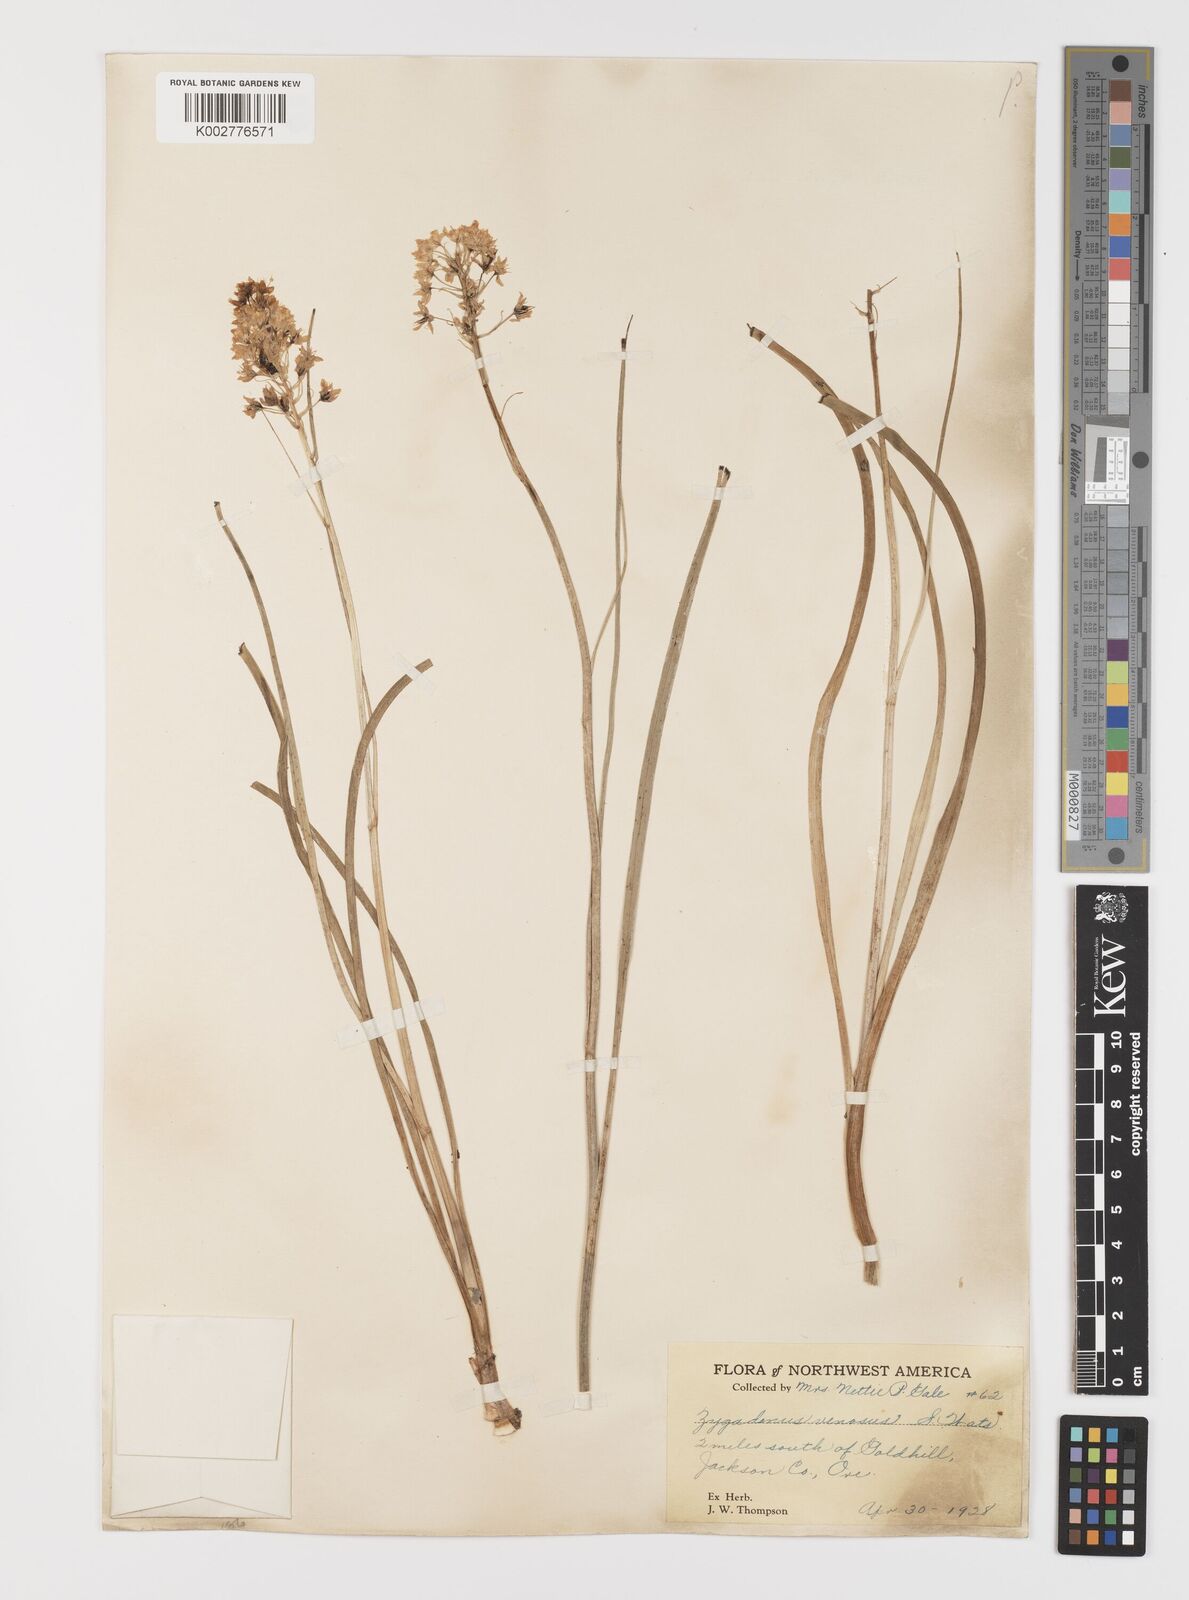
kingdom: Plantae
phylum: Tracheophyta
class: Liliopsida
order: Liliales
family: Melanthiaceae
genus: Toxicoscordion
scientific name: Toxicoscordion paniculatum
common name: Foothill death camas
